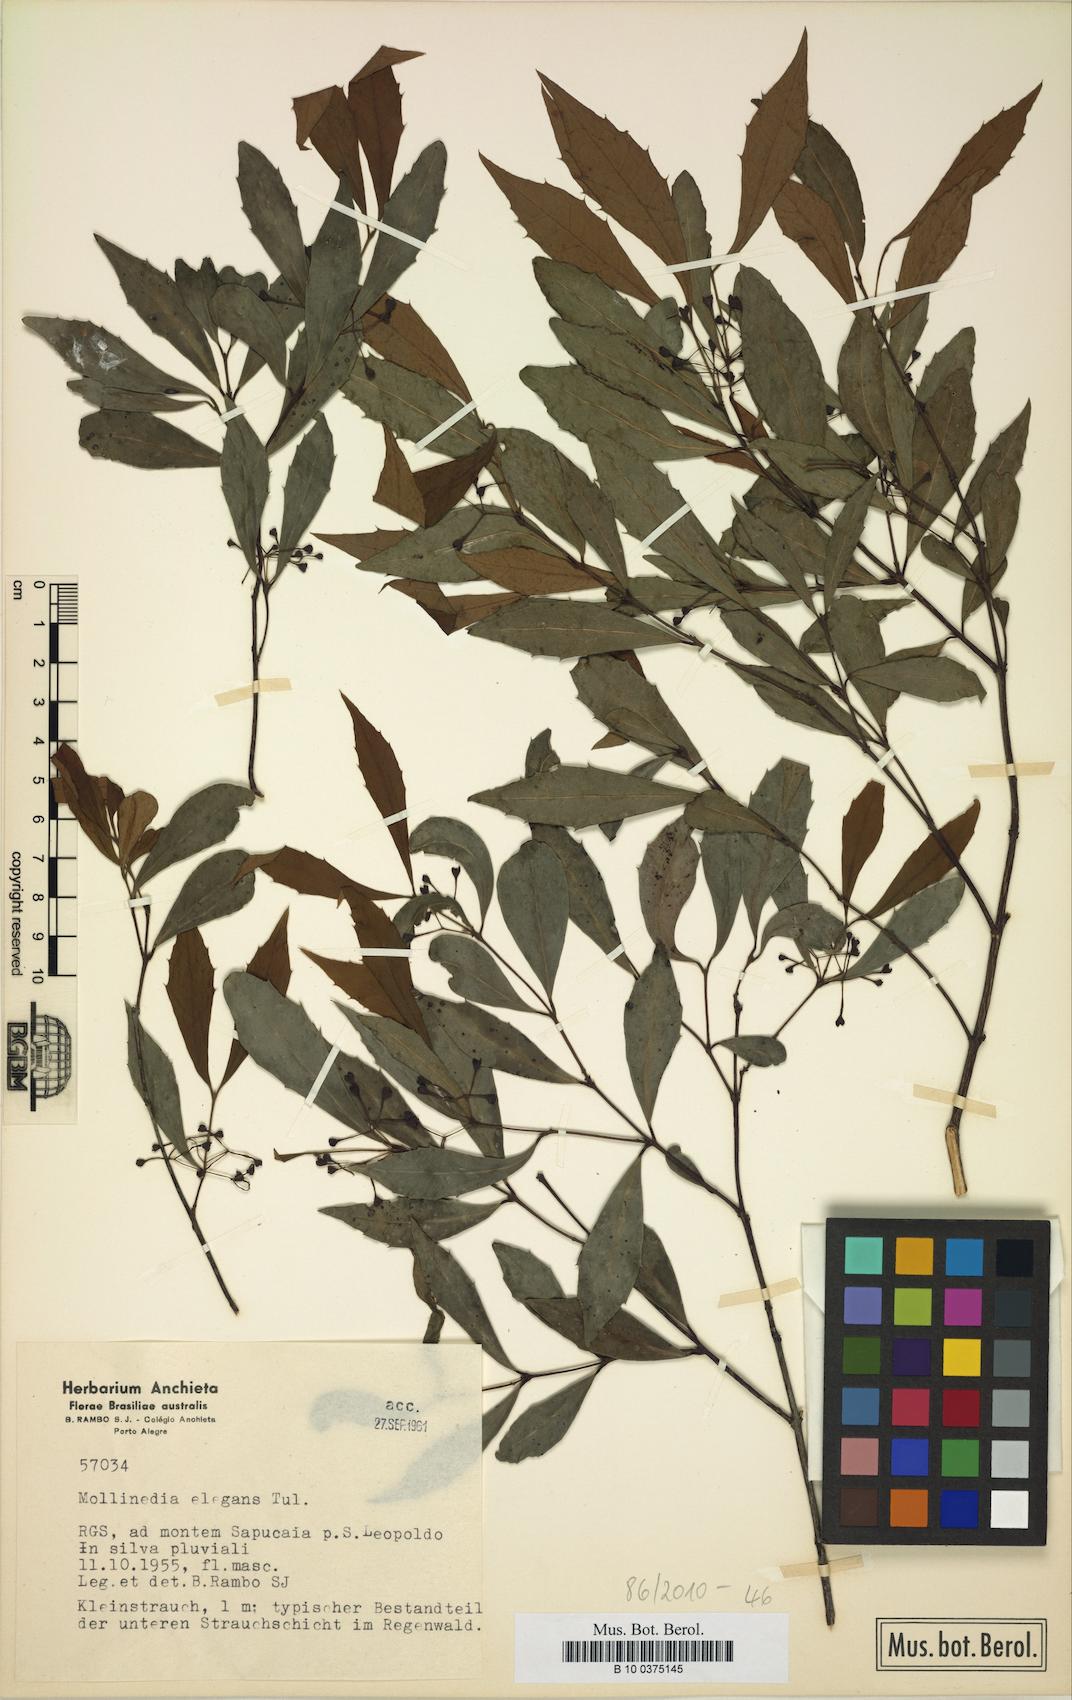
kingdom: Plantae
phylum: Tracheophyta
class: Magnoliopsida
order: Laurales
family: Monimiaceae
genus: Mollinedia
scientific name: Mollinedia elegans
